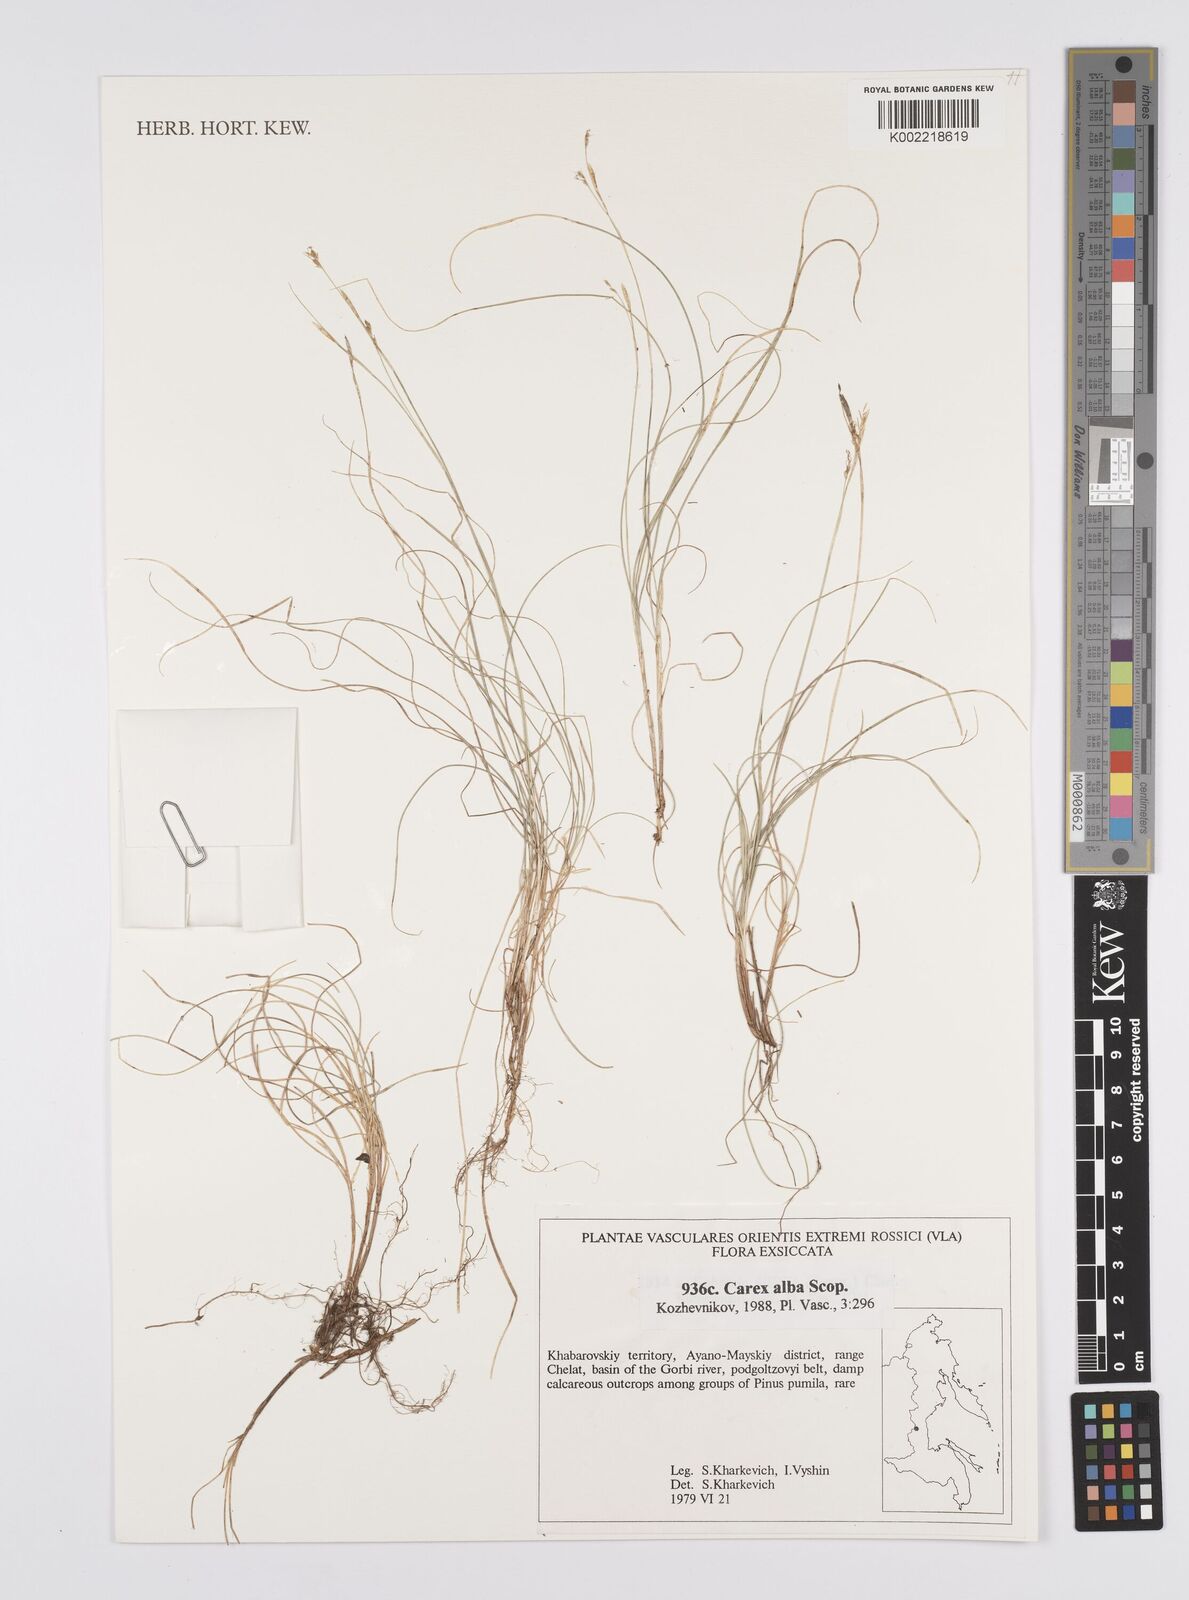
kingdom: Plantae
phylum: Tracheophyta
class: Liliopsida
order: Poales
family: Cyperaceae
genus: Carex
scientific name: Carex alba
